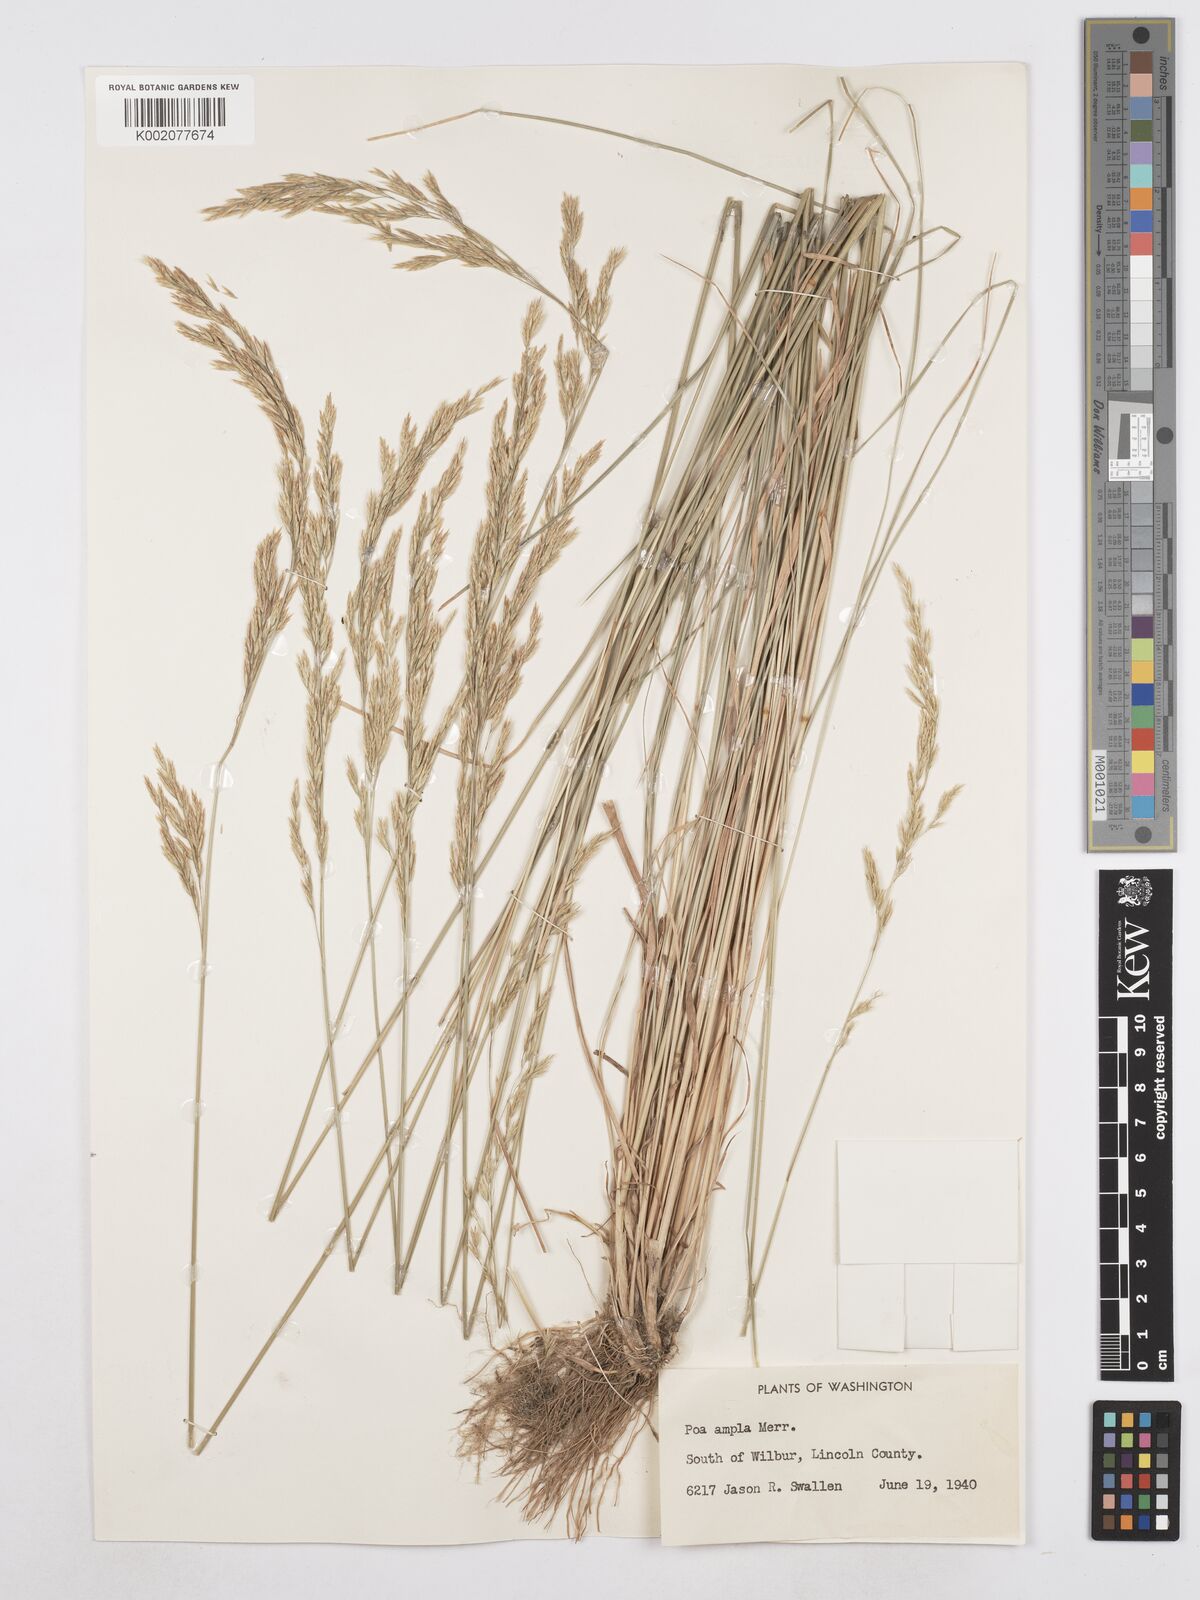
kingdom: Plantae
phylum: Tracheophyta
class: Liliopsida
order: Poales
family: Poaceae
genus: Poa
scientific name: Poa secunda
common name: Sandberg bluegrass
